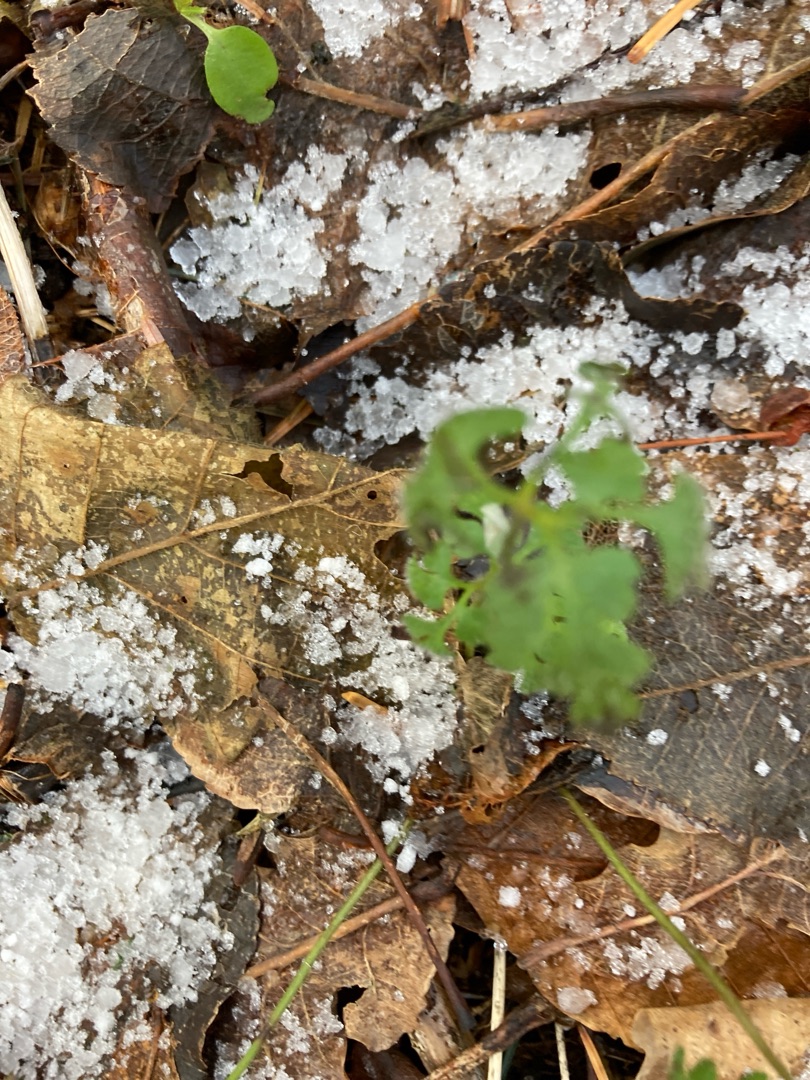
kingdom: Plantae
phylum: Tracheophyta
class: Magnoliopsida
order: Geraniales
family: Geraniaceae
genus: Geranium
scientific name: Geranium robertianum
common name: Stinkende storkenæb
